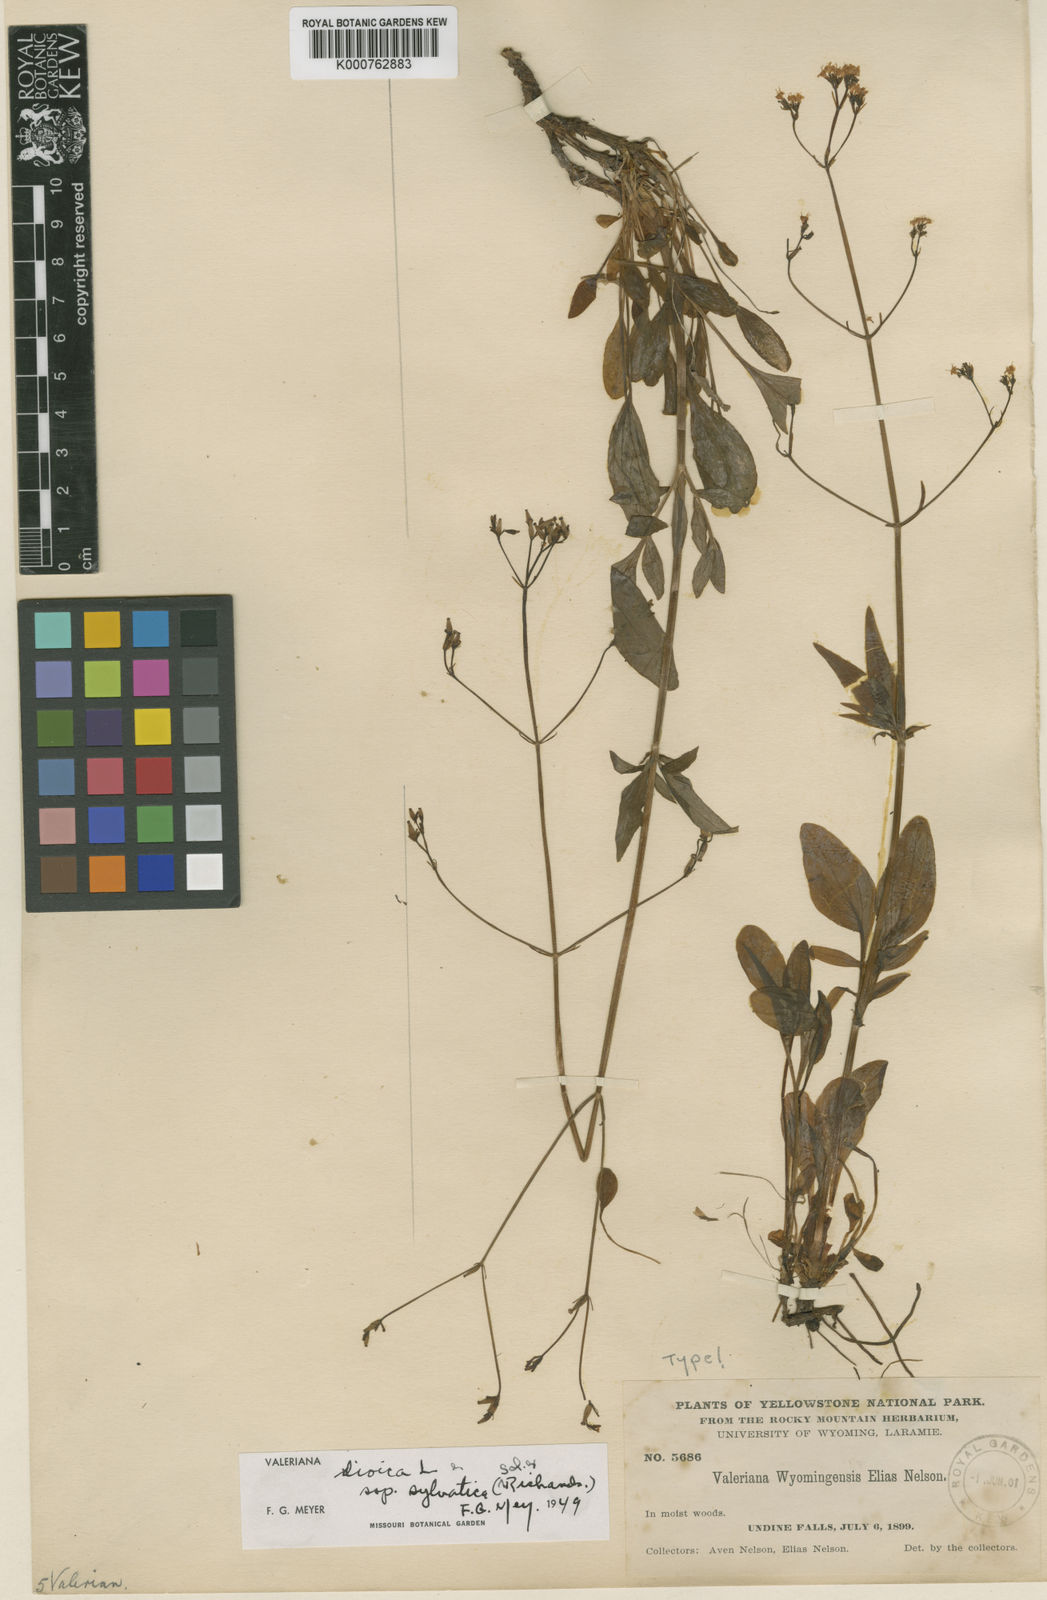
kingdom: Plantae
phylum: Tracheophyta
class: Magnoliopsida
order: Dipsacales
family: Caprifoliaceae
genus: Valeriana
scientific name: Valeriana dioica
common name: Marsh valerian
